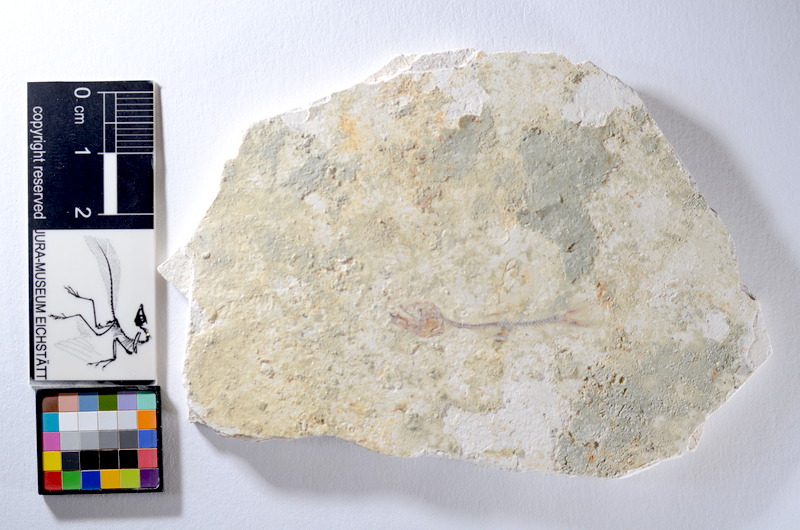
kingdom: Animalia
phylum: Chordata
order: Salmoniformes
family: Orthogonikleithridae
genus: Orthogonikleithrus
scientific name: Orthogonikleithrus hoelli
